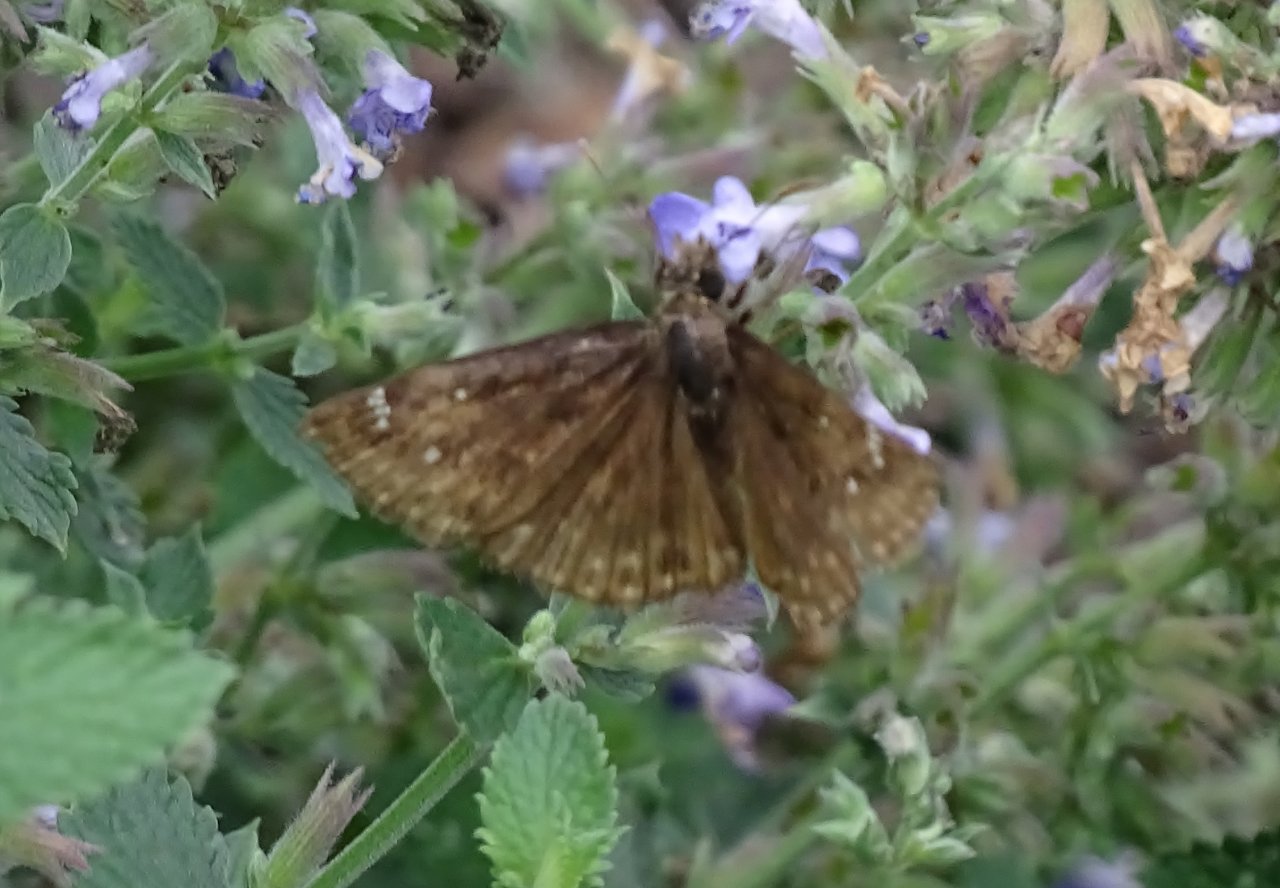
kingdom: Animalia
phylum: Arthropoda
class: Insecta
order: Lepidoptera
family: Hesperiidae
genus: Erynnis
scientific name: Erynnis
